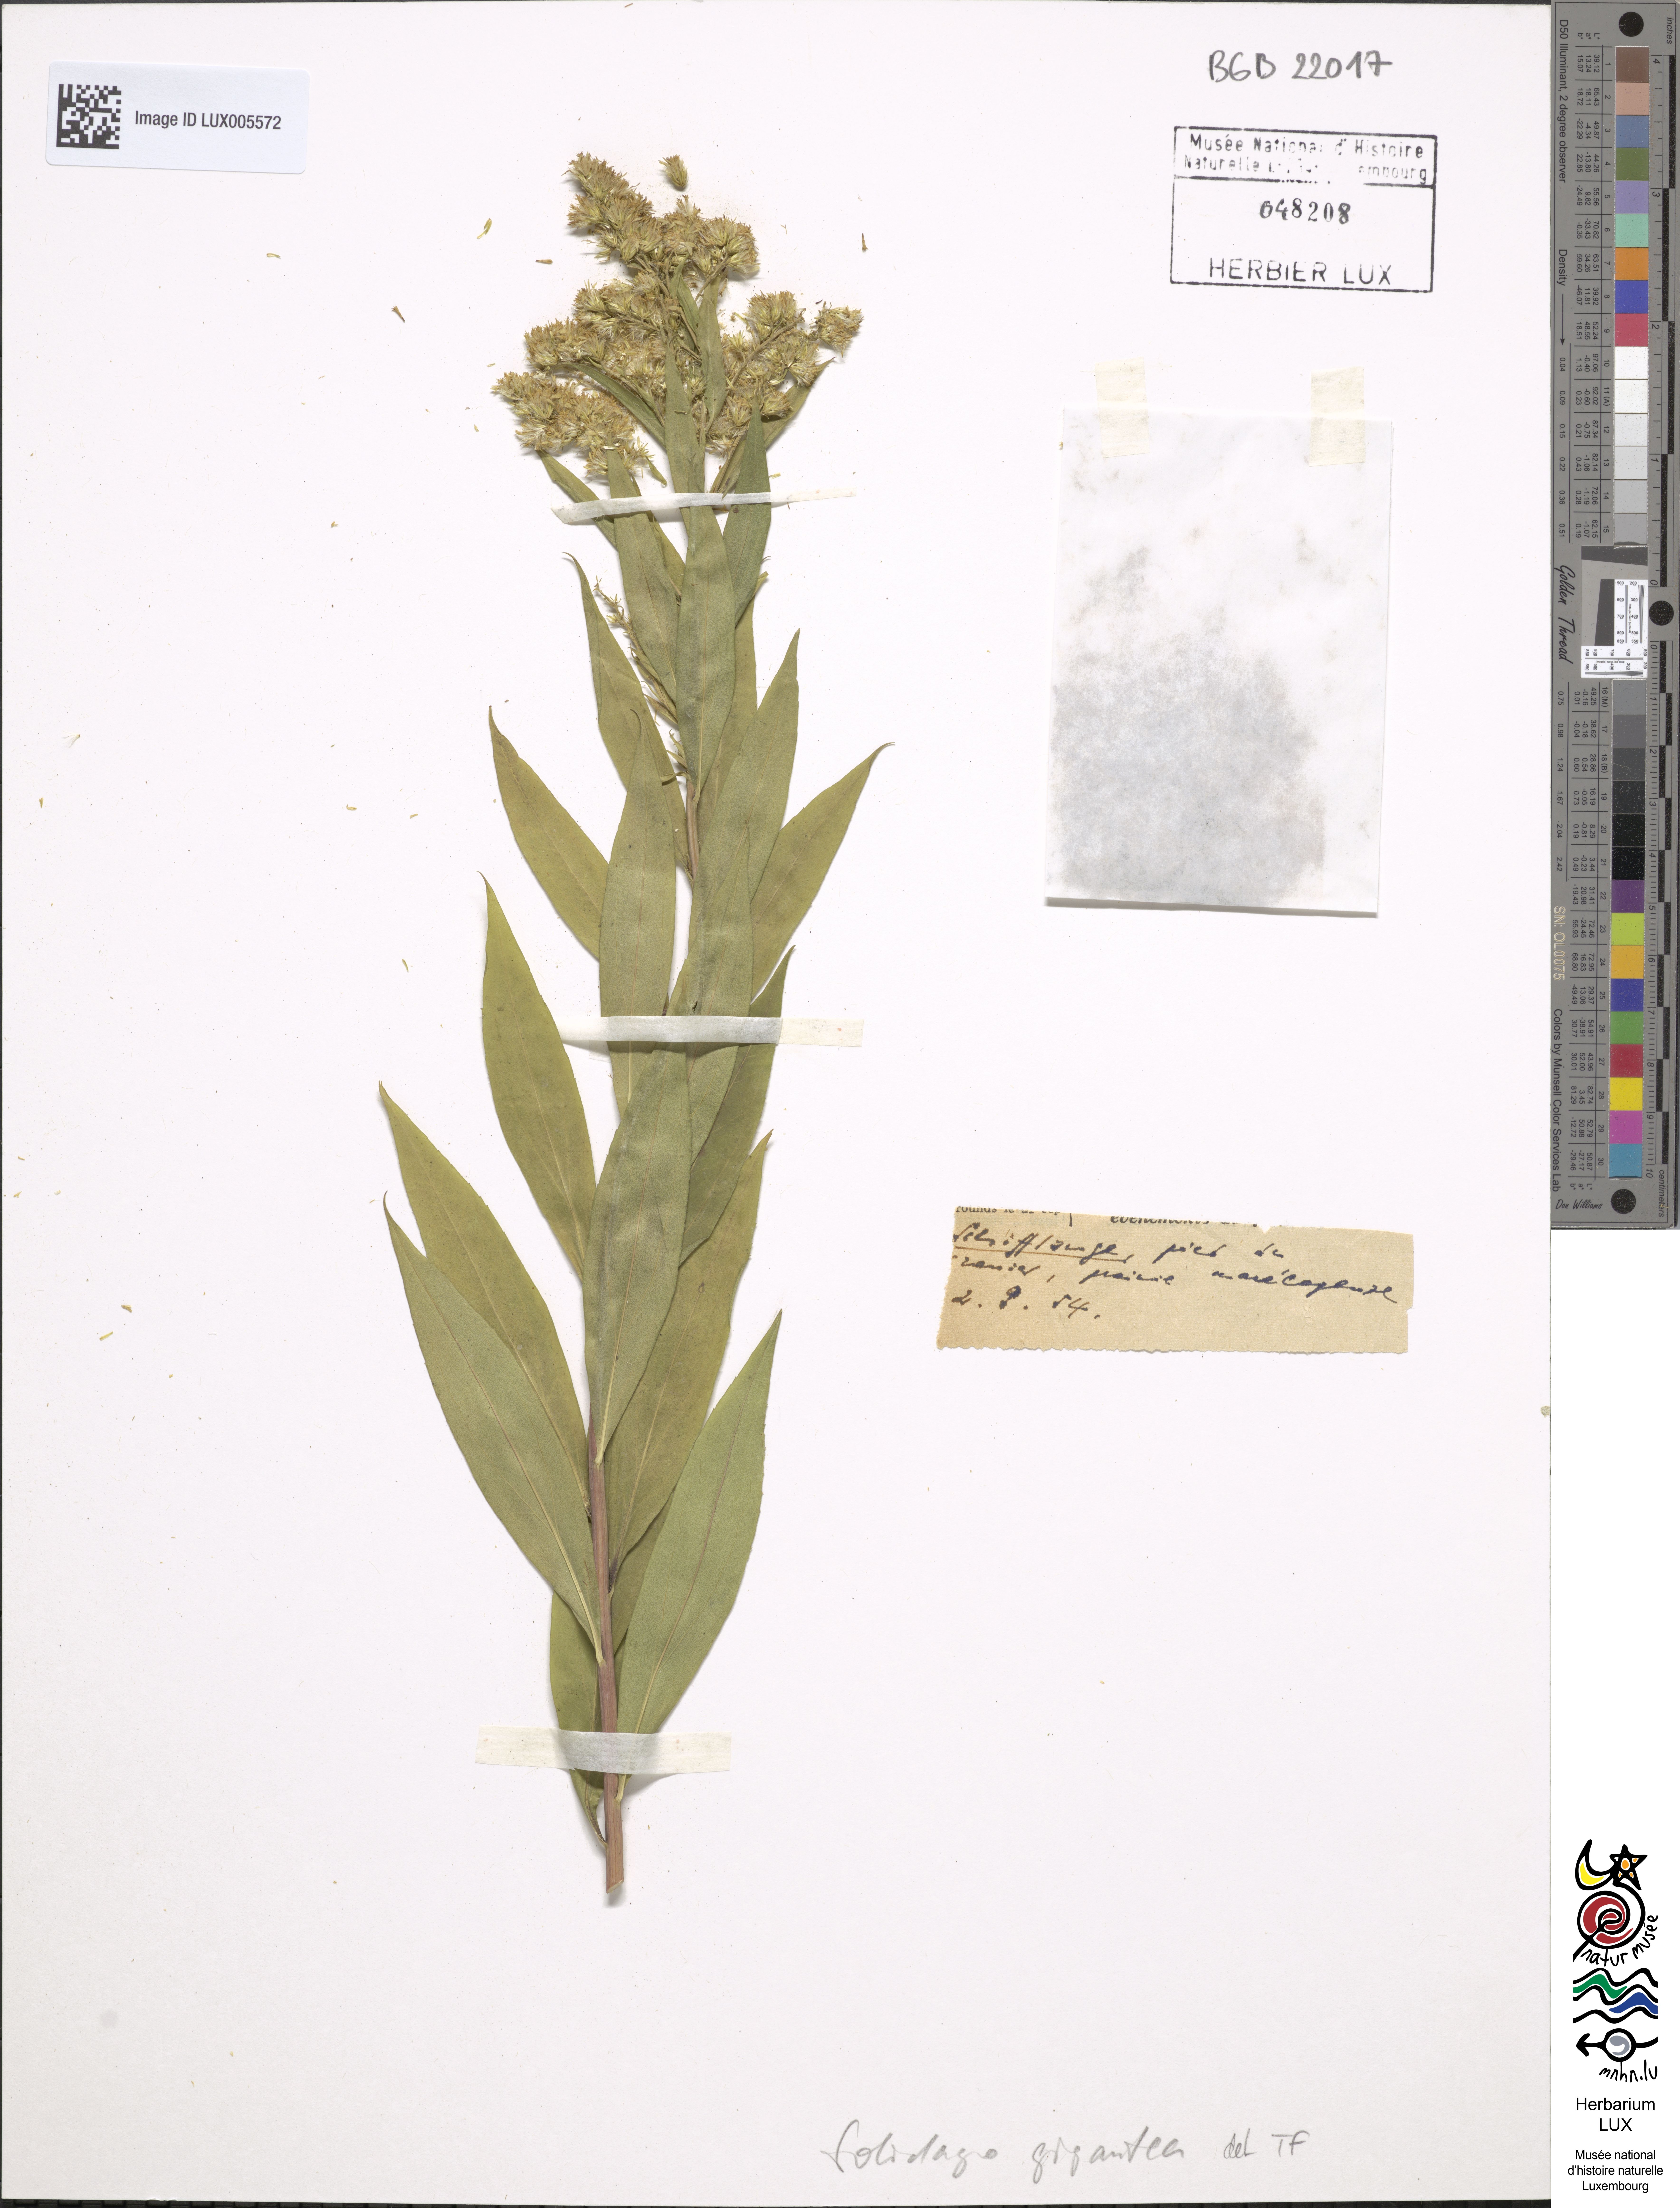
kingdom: Plantae
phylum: Tracheophyta
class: Magnoliopsida
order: Asterales
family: Asteraceae
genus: Solidago
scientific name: Solidago gigantea
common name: Giant goldenrod
